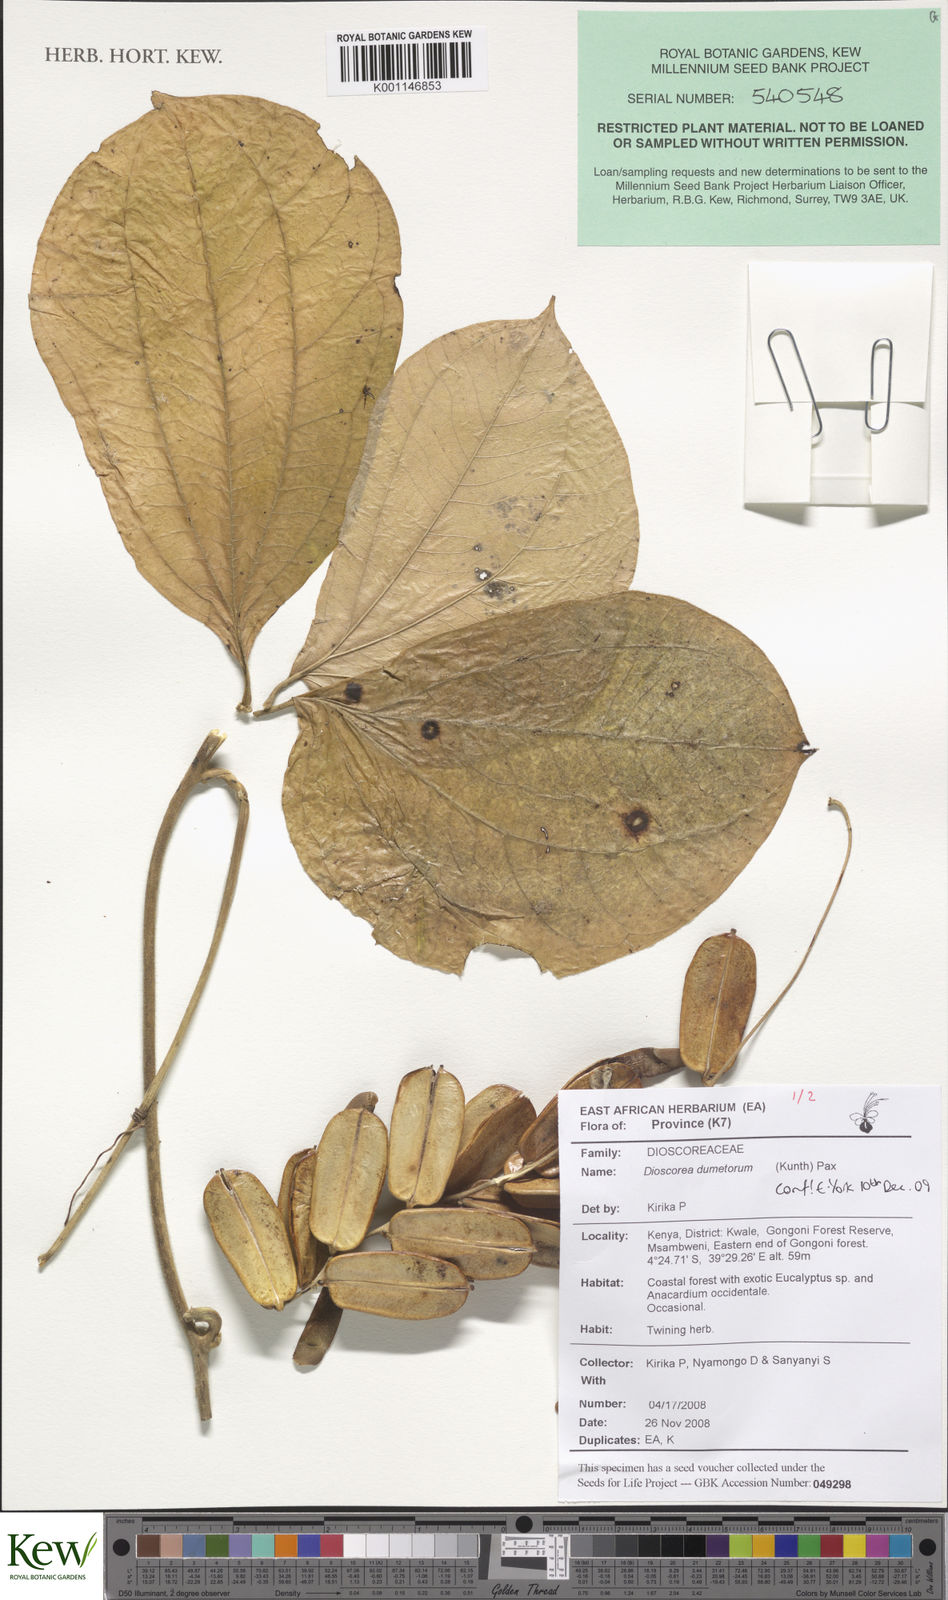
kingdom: Plantae
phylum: Tracheophyta
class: Liliopsida
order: Dioscoreales
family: Dioscoreaceae
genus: Dioscorea
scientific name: Dioscorea dumetorum
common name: African bitter yam
